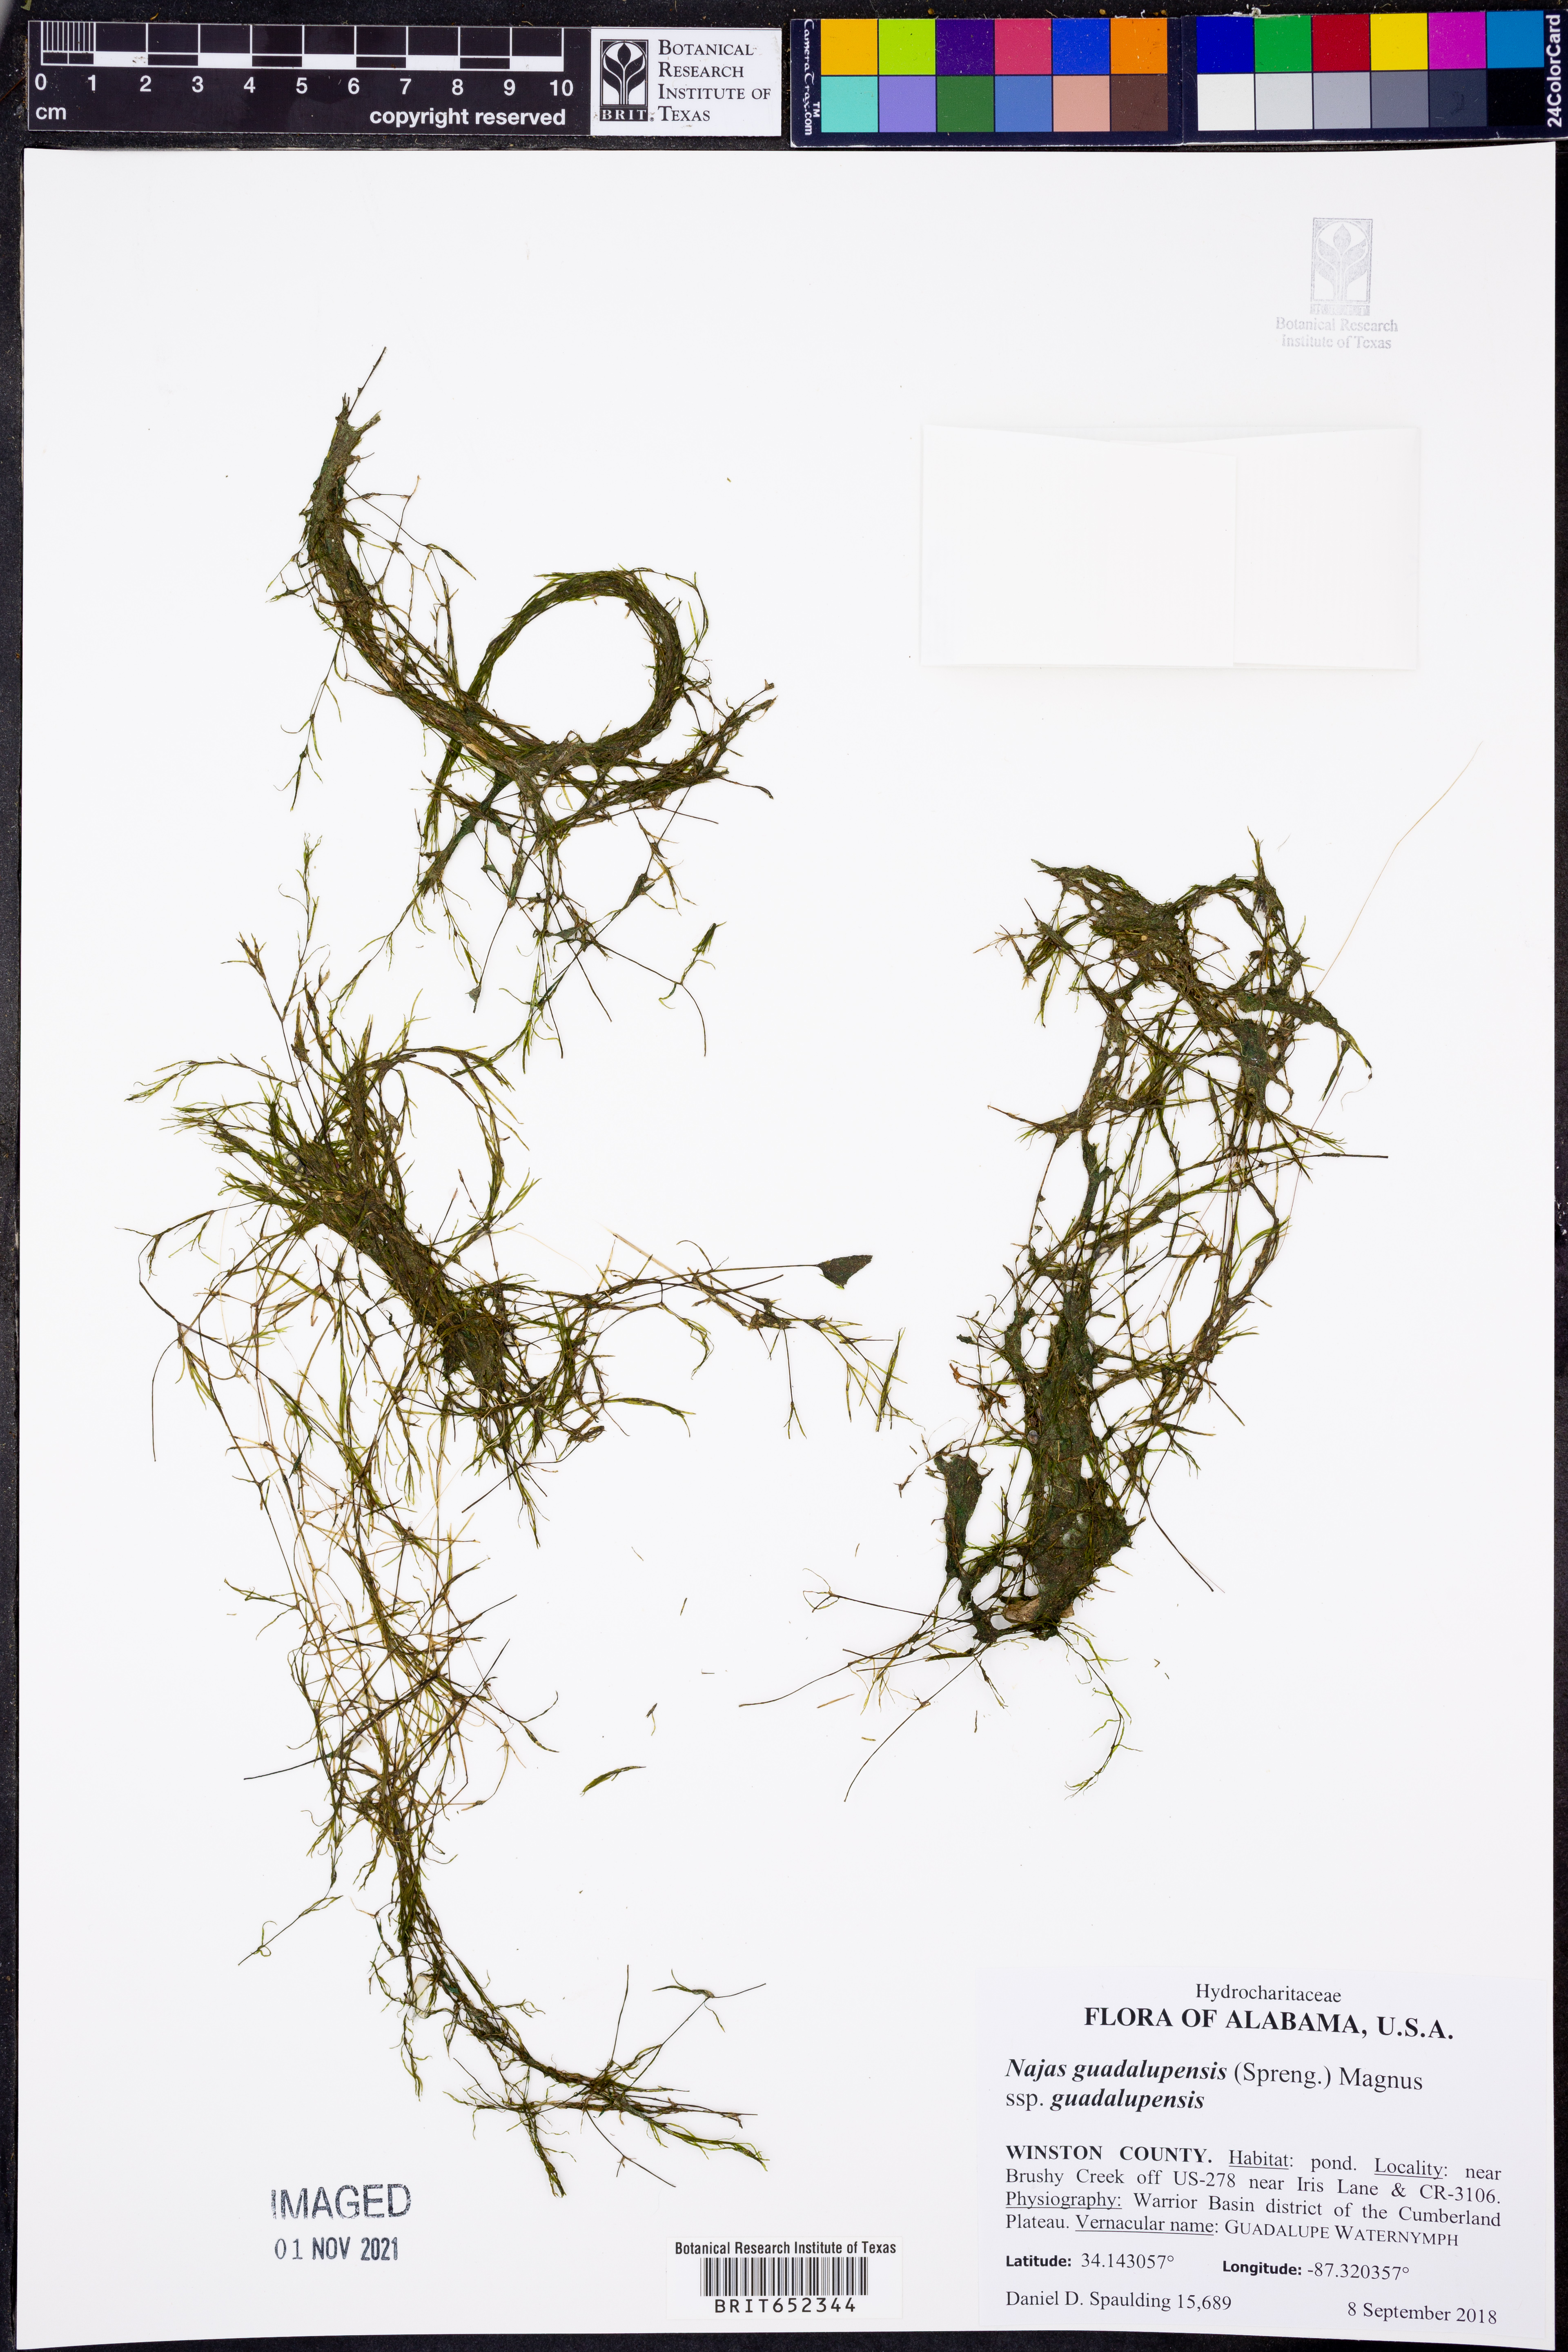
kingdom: Plantae
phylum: Tracheophyta
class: Liliopsida
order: Alismatales
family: Hydrocharitaceae
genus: Najas
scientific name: Najas guadalupensis
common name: Southern naiad
